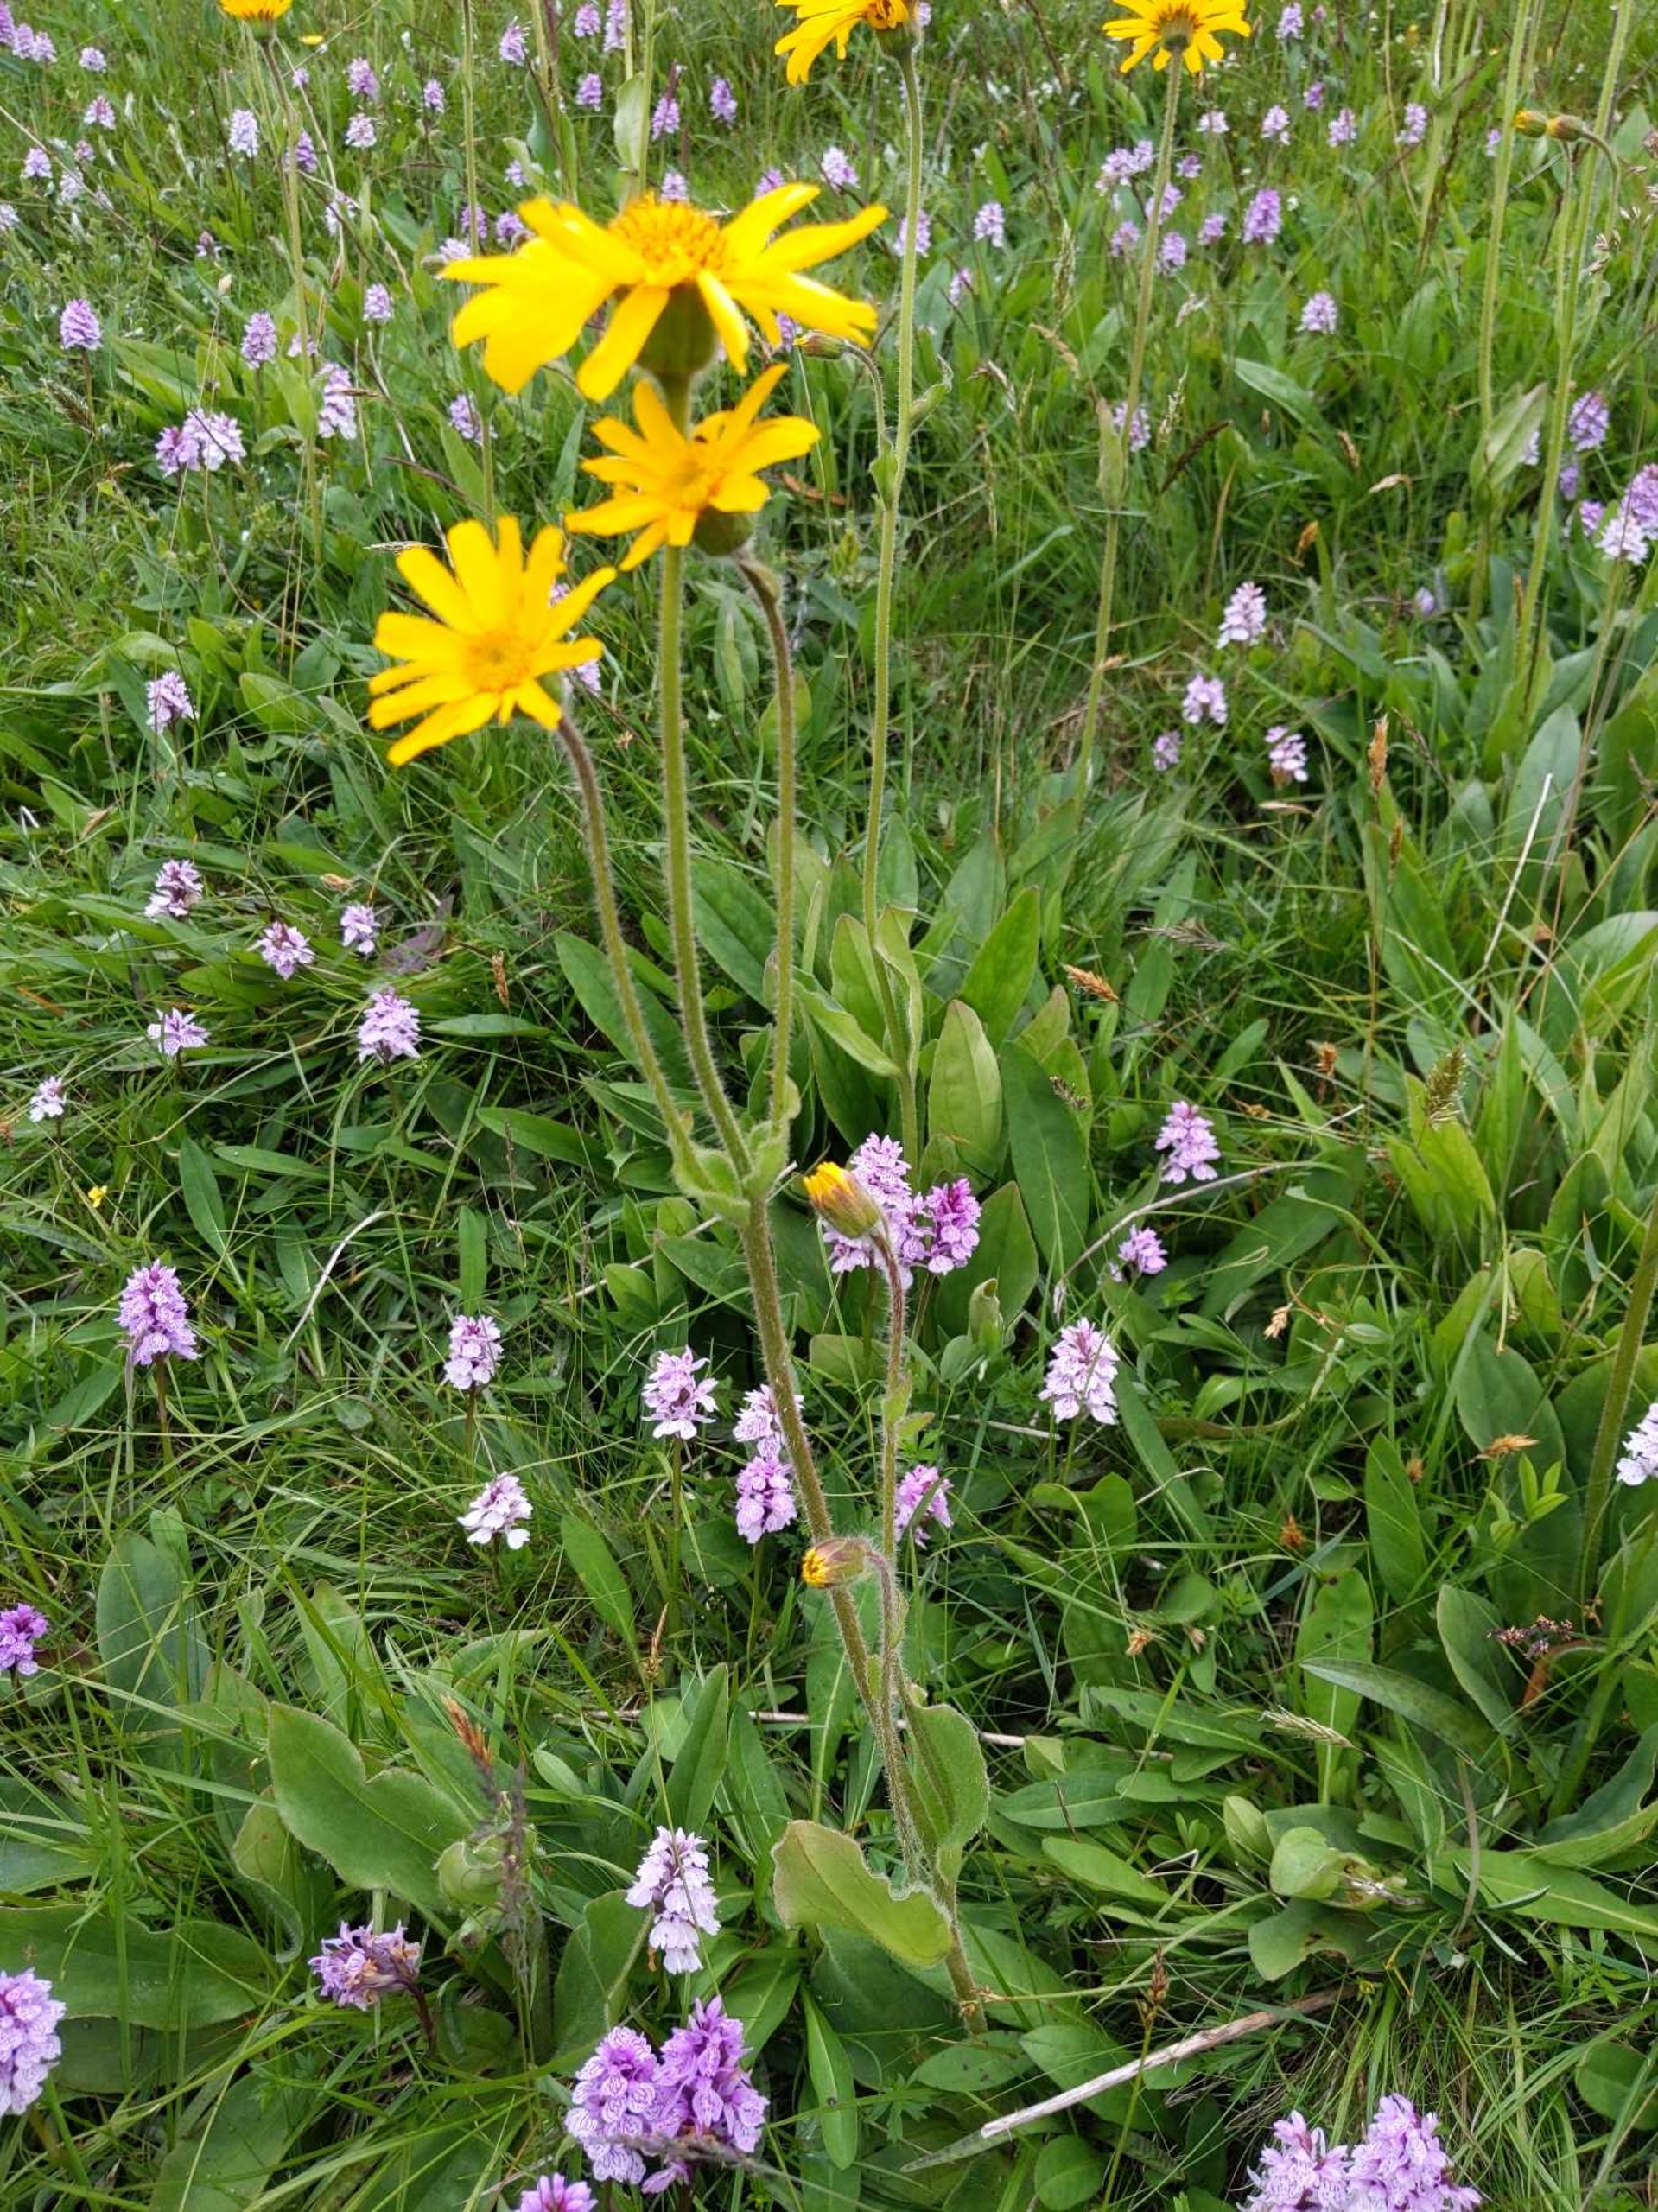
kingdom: Plantae
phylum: Tracheophyta
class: Magnoliopsida
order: Asterales
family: Asteraceae
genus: Arnica
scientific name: Arnica montana
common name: Guldblomme
